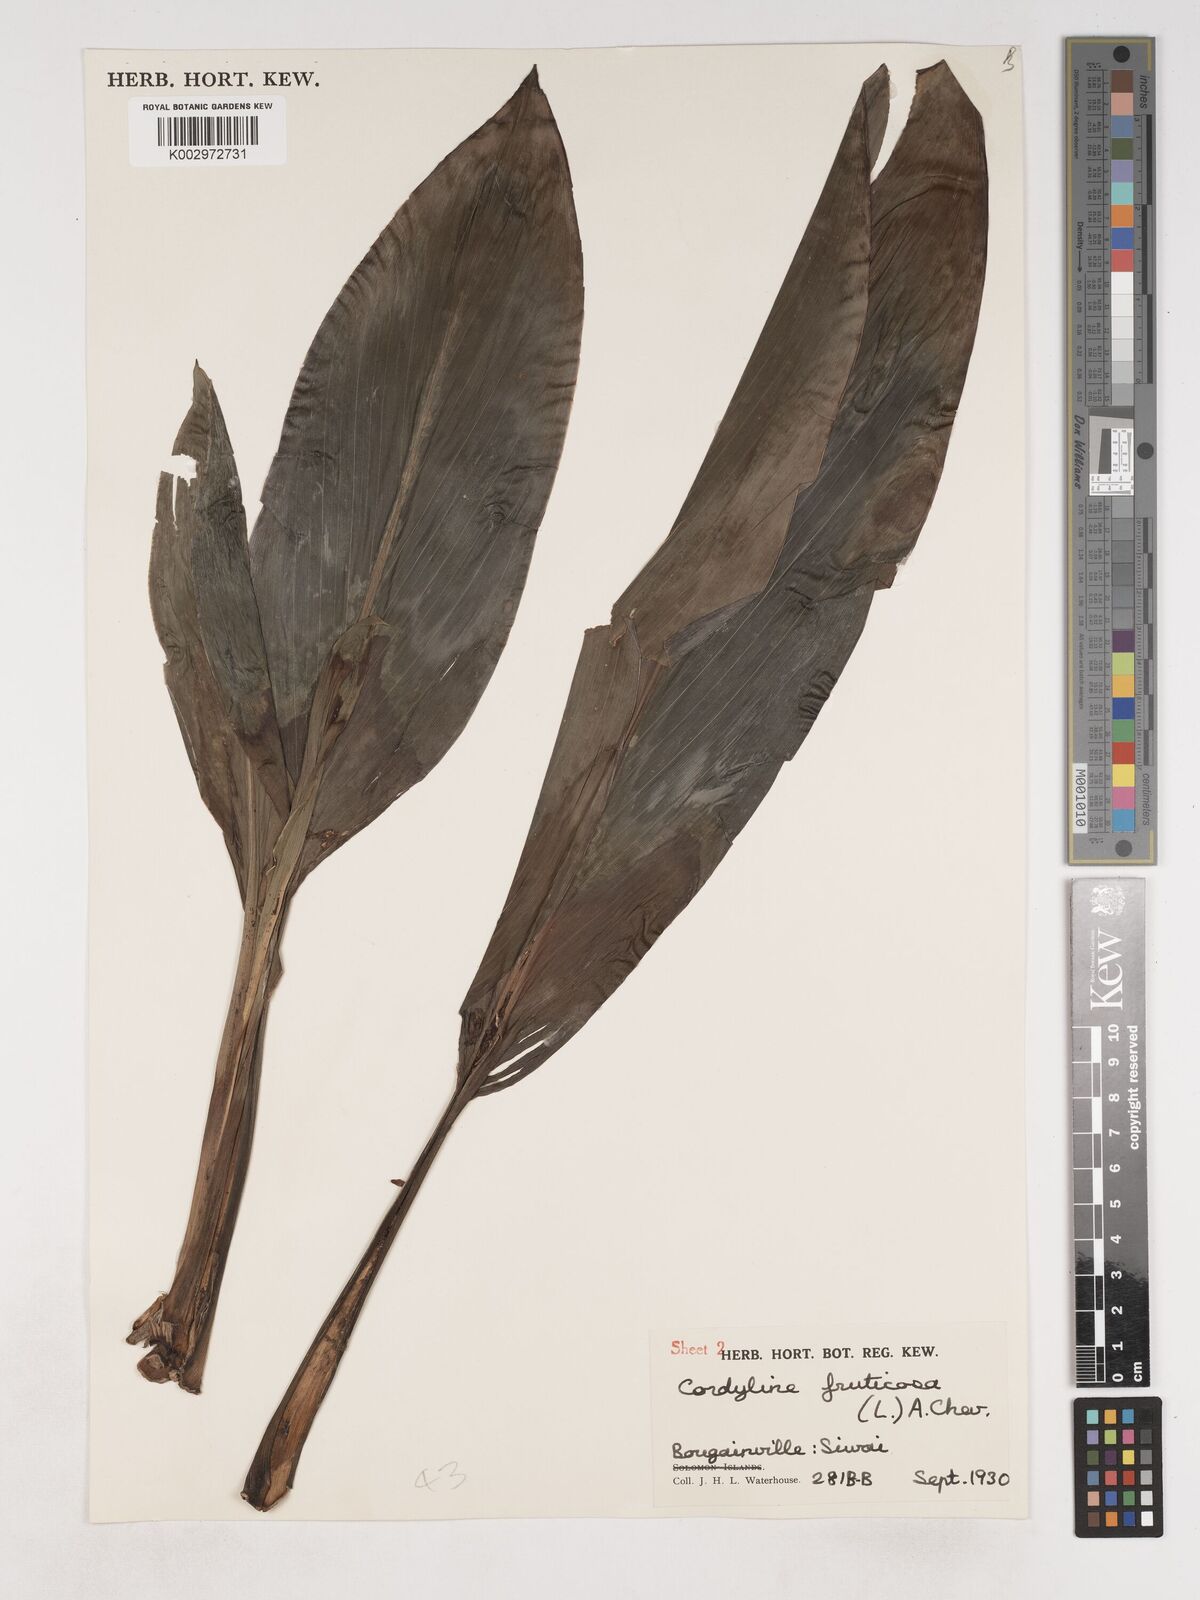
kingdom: Plantae
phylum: Tracheophyta
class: Liliopsida
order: Asparagales
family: Asparagaceae
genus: Cordyline
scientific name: Cordyline fruticosa
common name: Good-luck-plant
